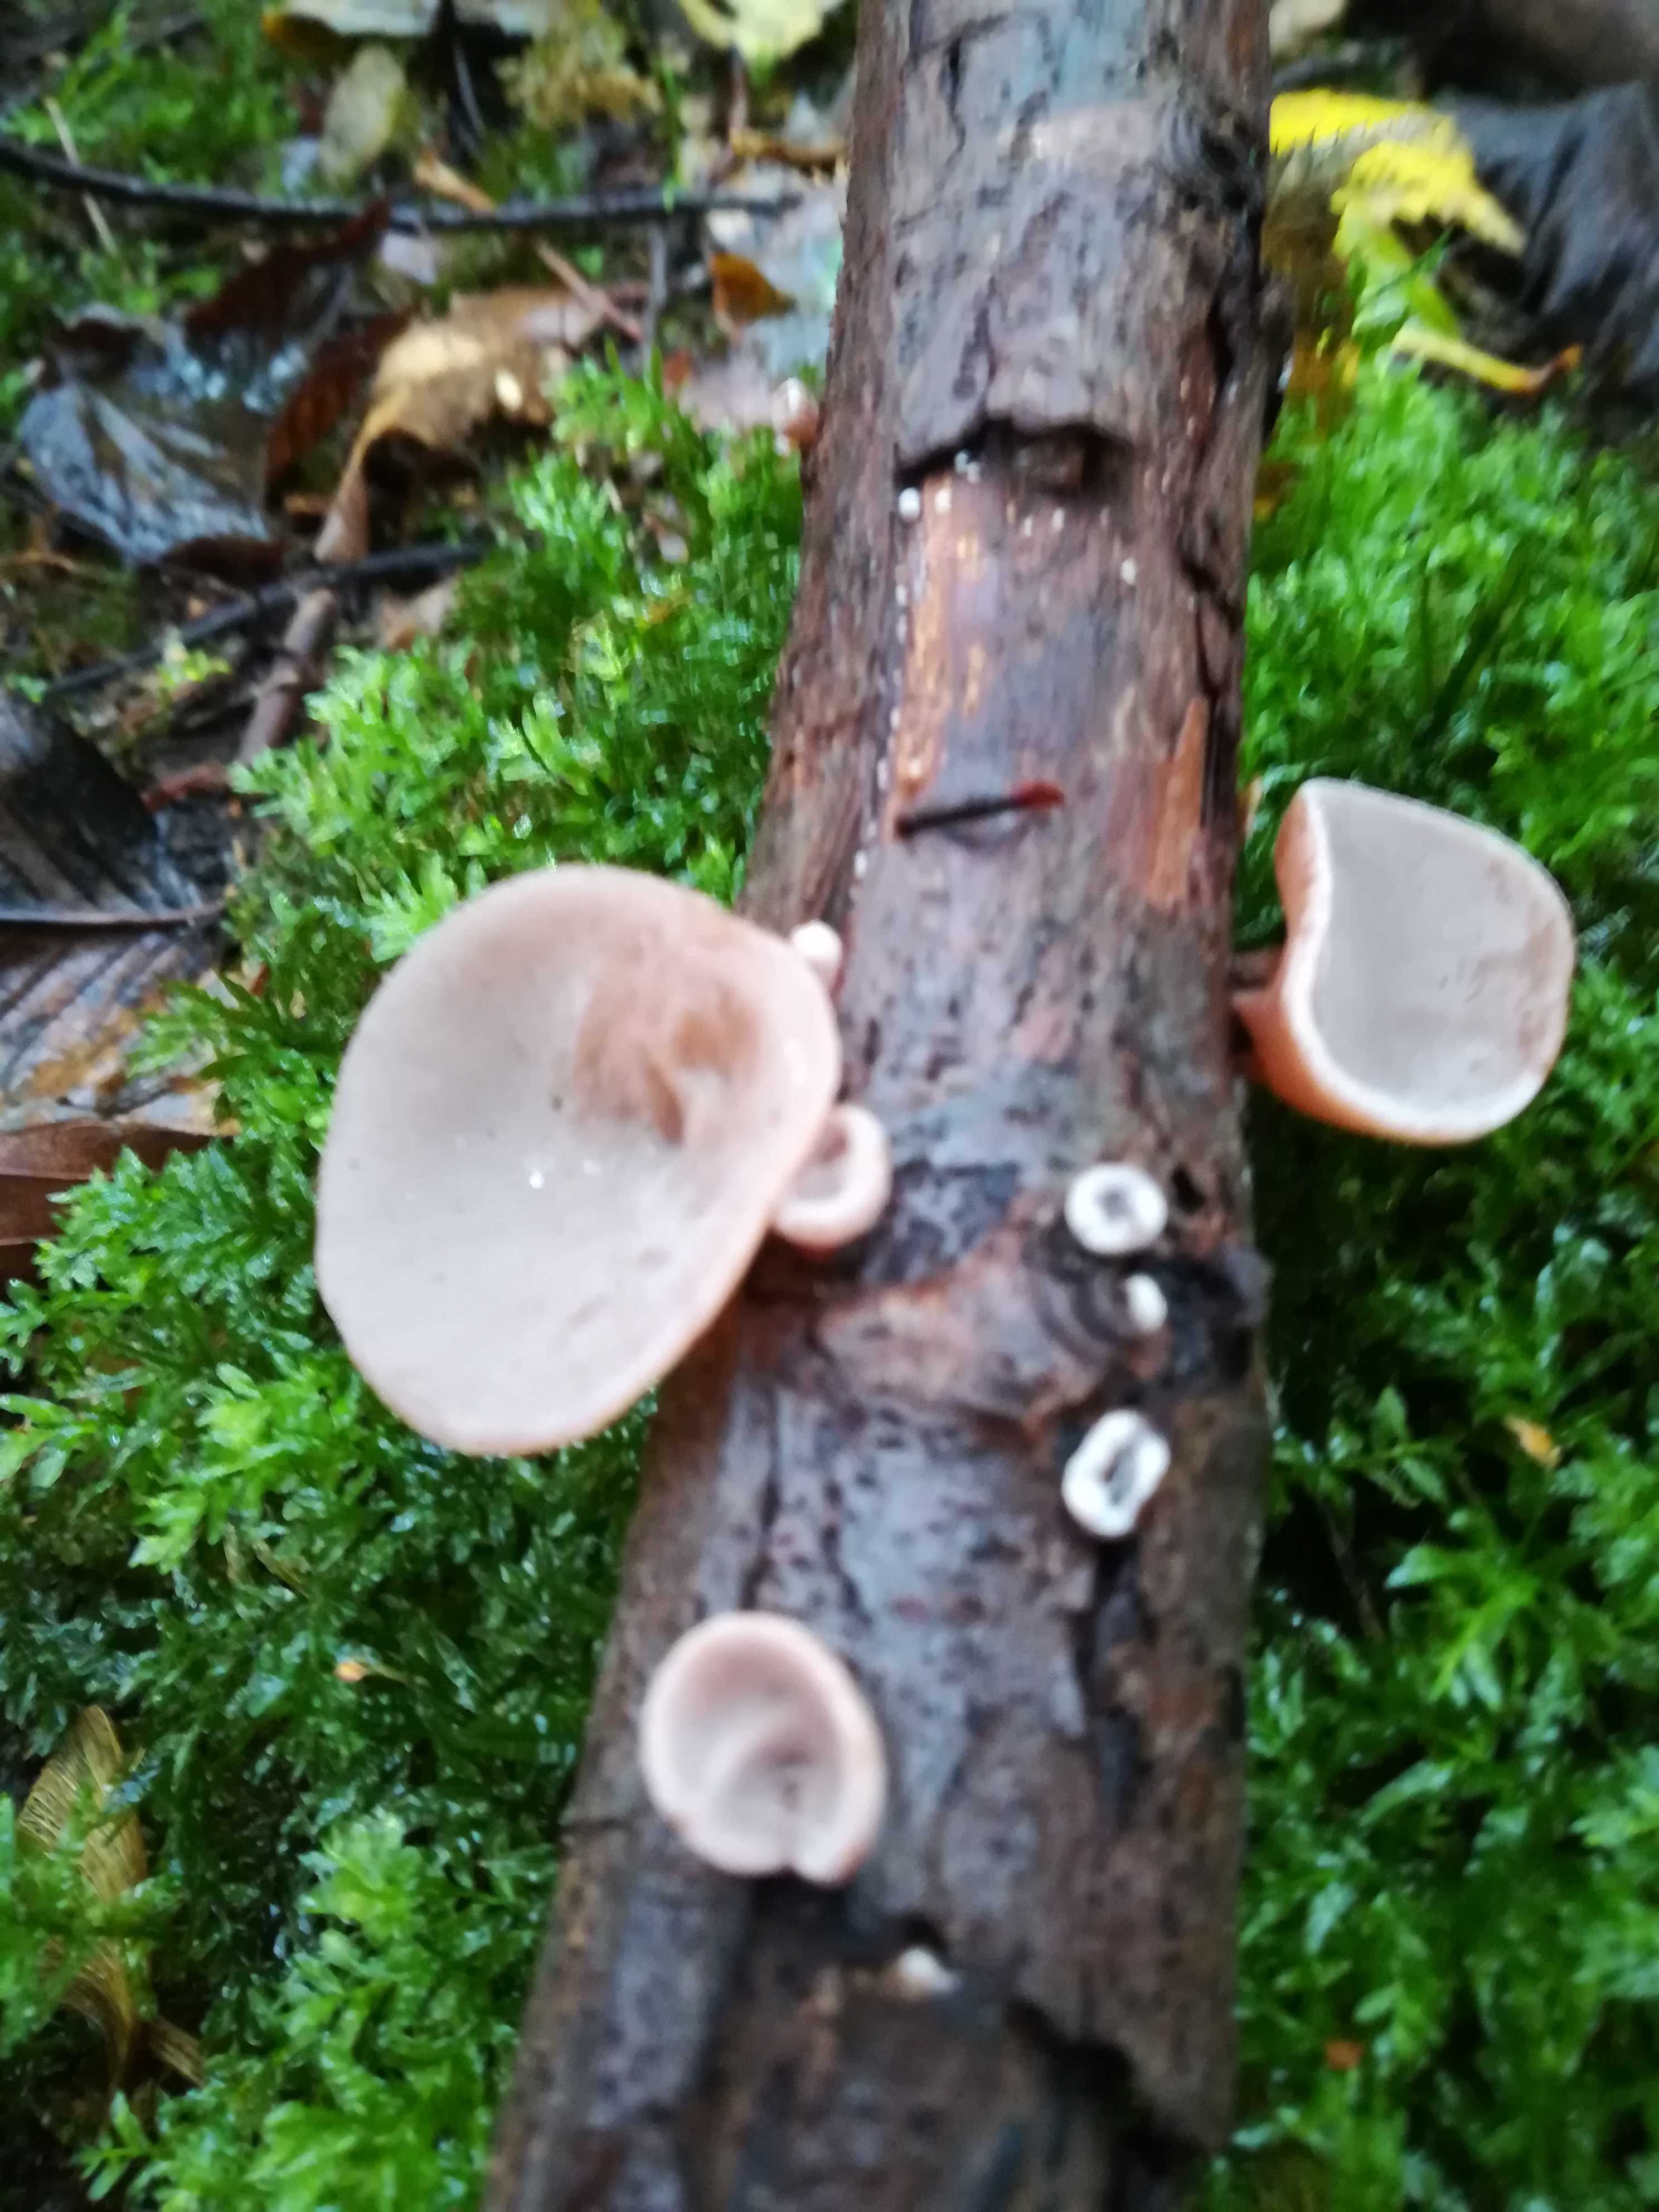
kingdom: Fungi
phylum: Basidiomycota
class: Agaricomycetes
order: Auriculariales
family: Auriculariaceae
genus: Auricularia
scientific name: Auricularia auricula-judae
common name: almindelig judasøre
